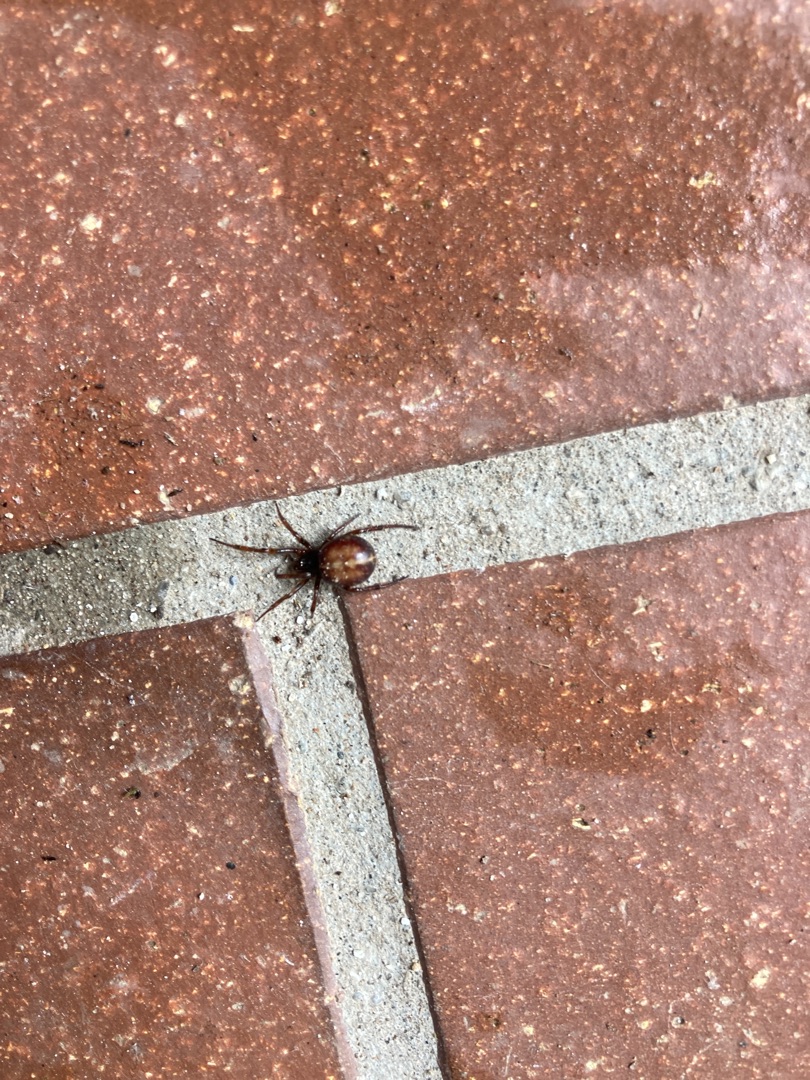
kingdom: Animalia
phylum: Arthropoda
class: Arachnida
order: Araneae
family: Theridiidae
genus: Steatoda
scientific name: Steatoda bipunctata
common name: Fedtedderkop
